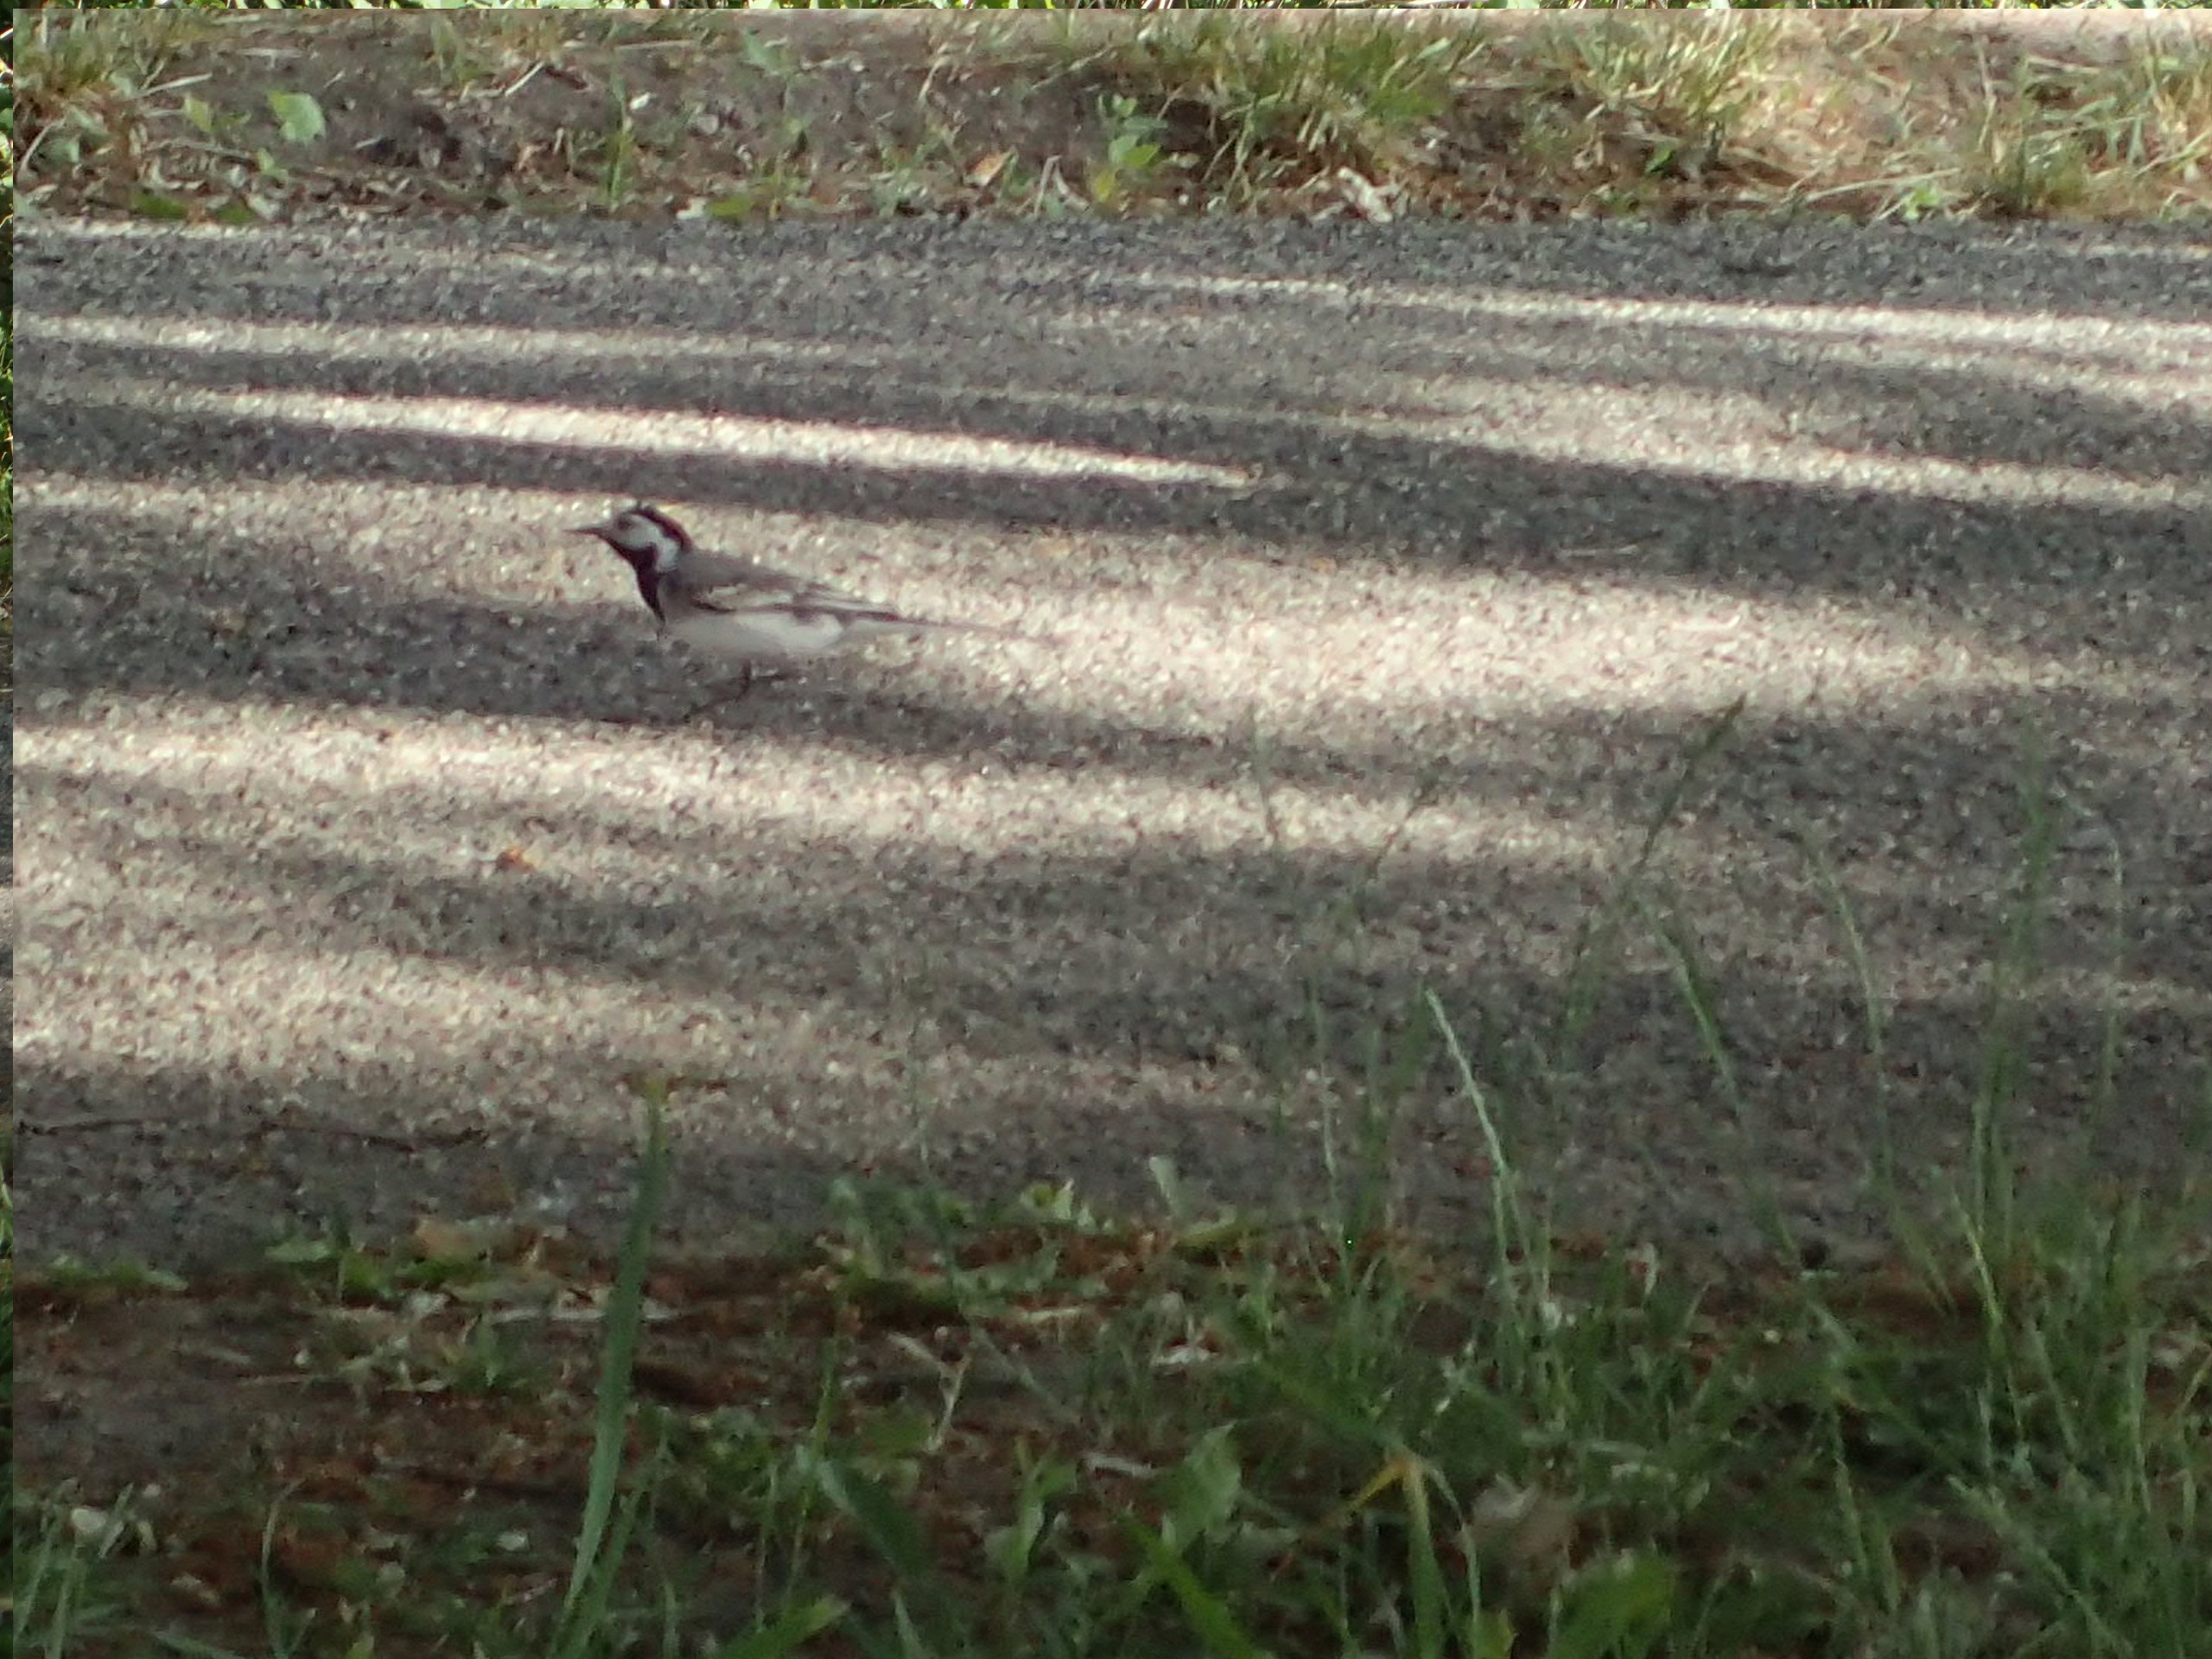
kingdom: Animalia
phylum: Chordata
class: Aves
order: Passeriformes
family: Motacillidae
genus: Motacilla
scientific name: Motacilla alba
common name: Hvid vipstjert
